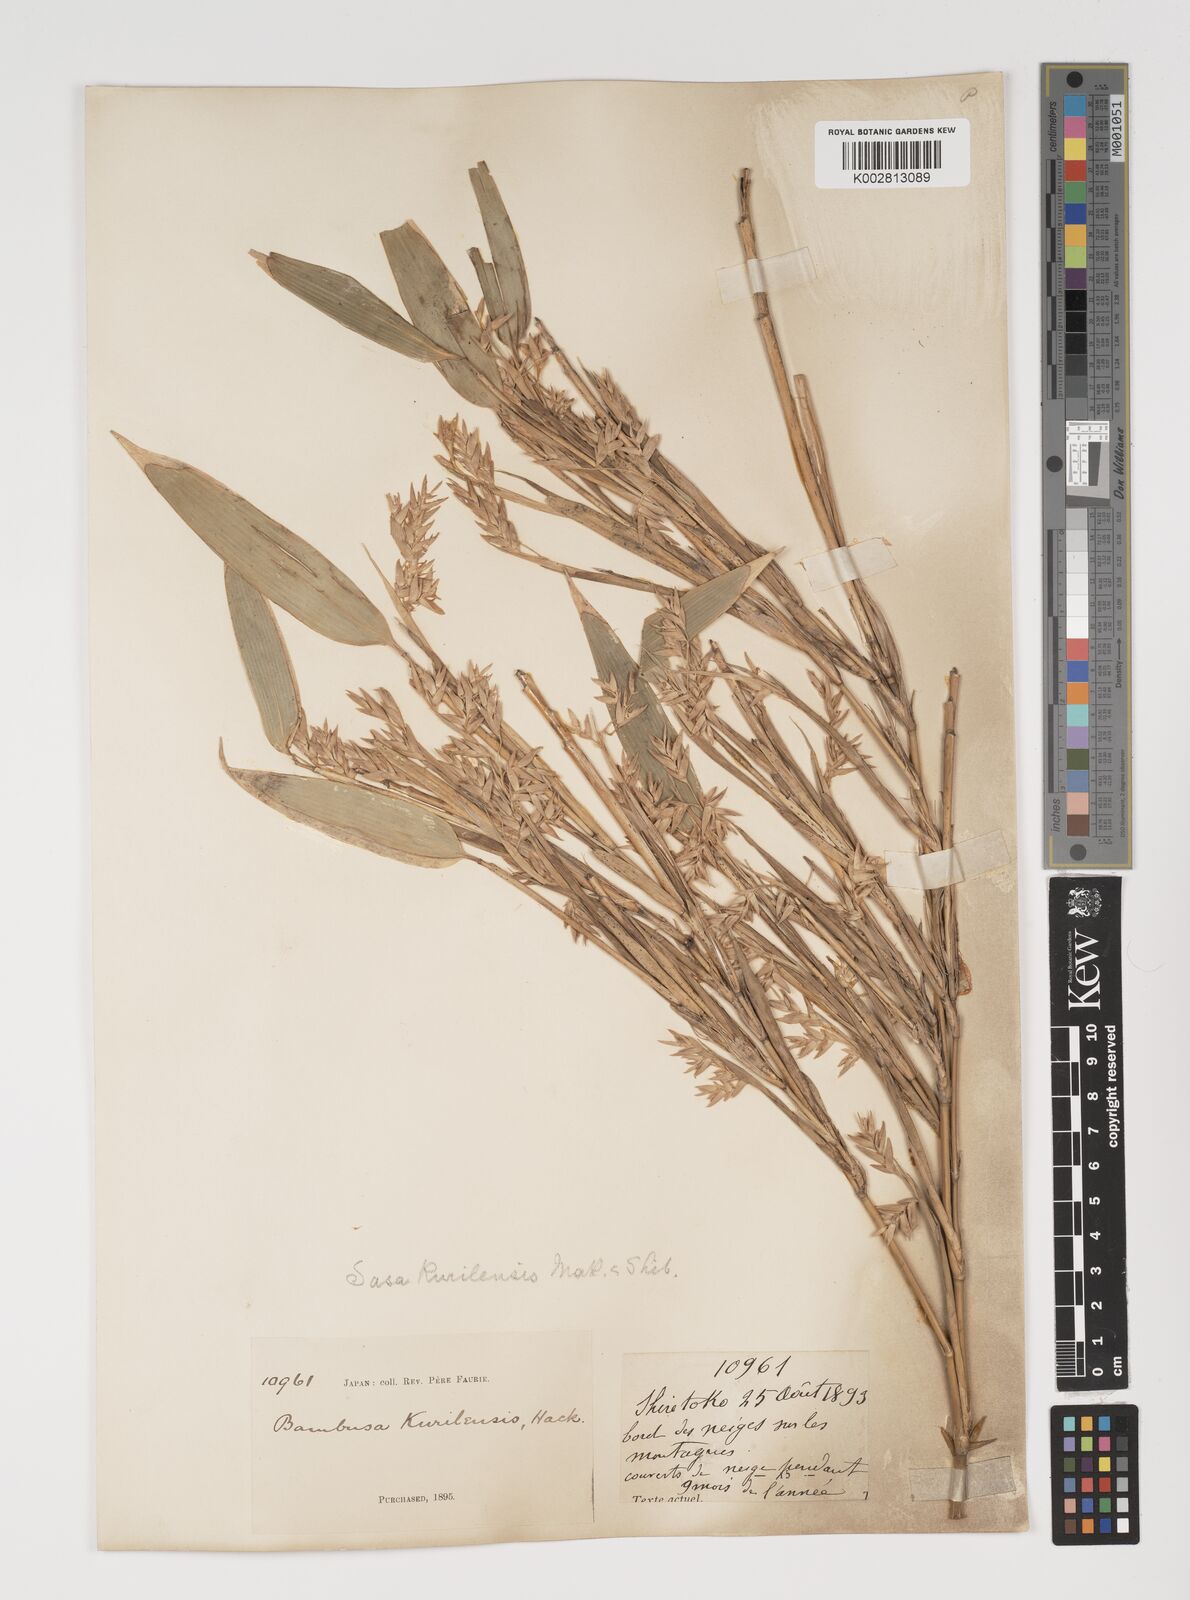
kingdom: Plantae
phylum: Tracheophyta
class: Liliopsida
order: Poales
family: Poaceae
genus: Sasa
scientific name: Sasa kurilensis
